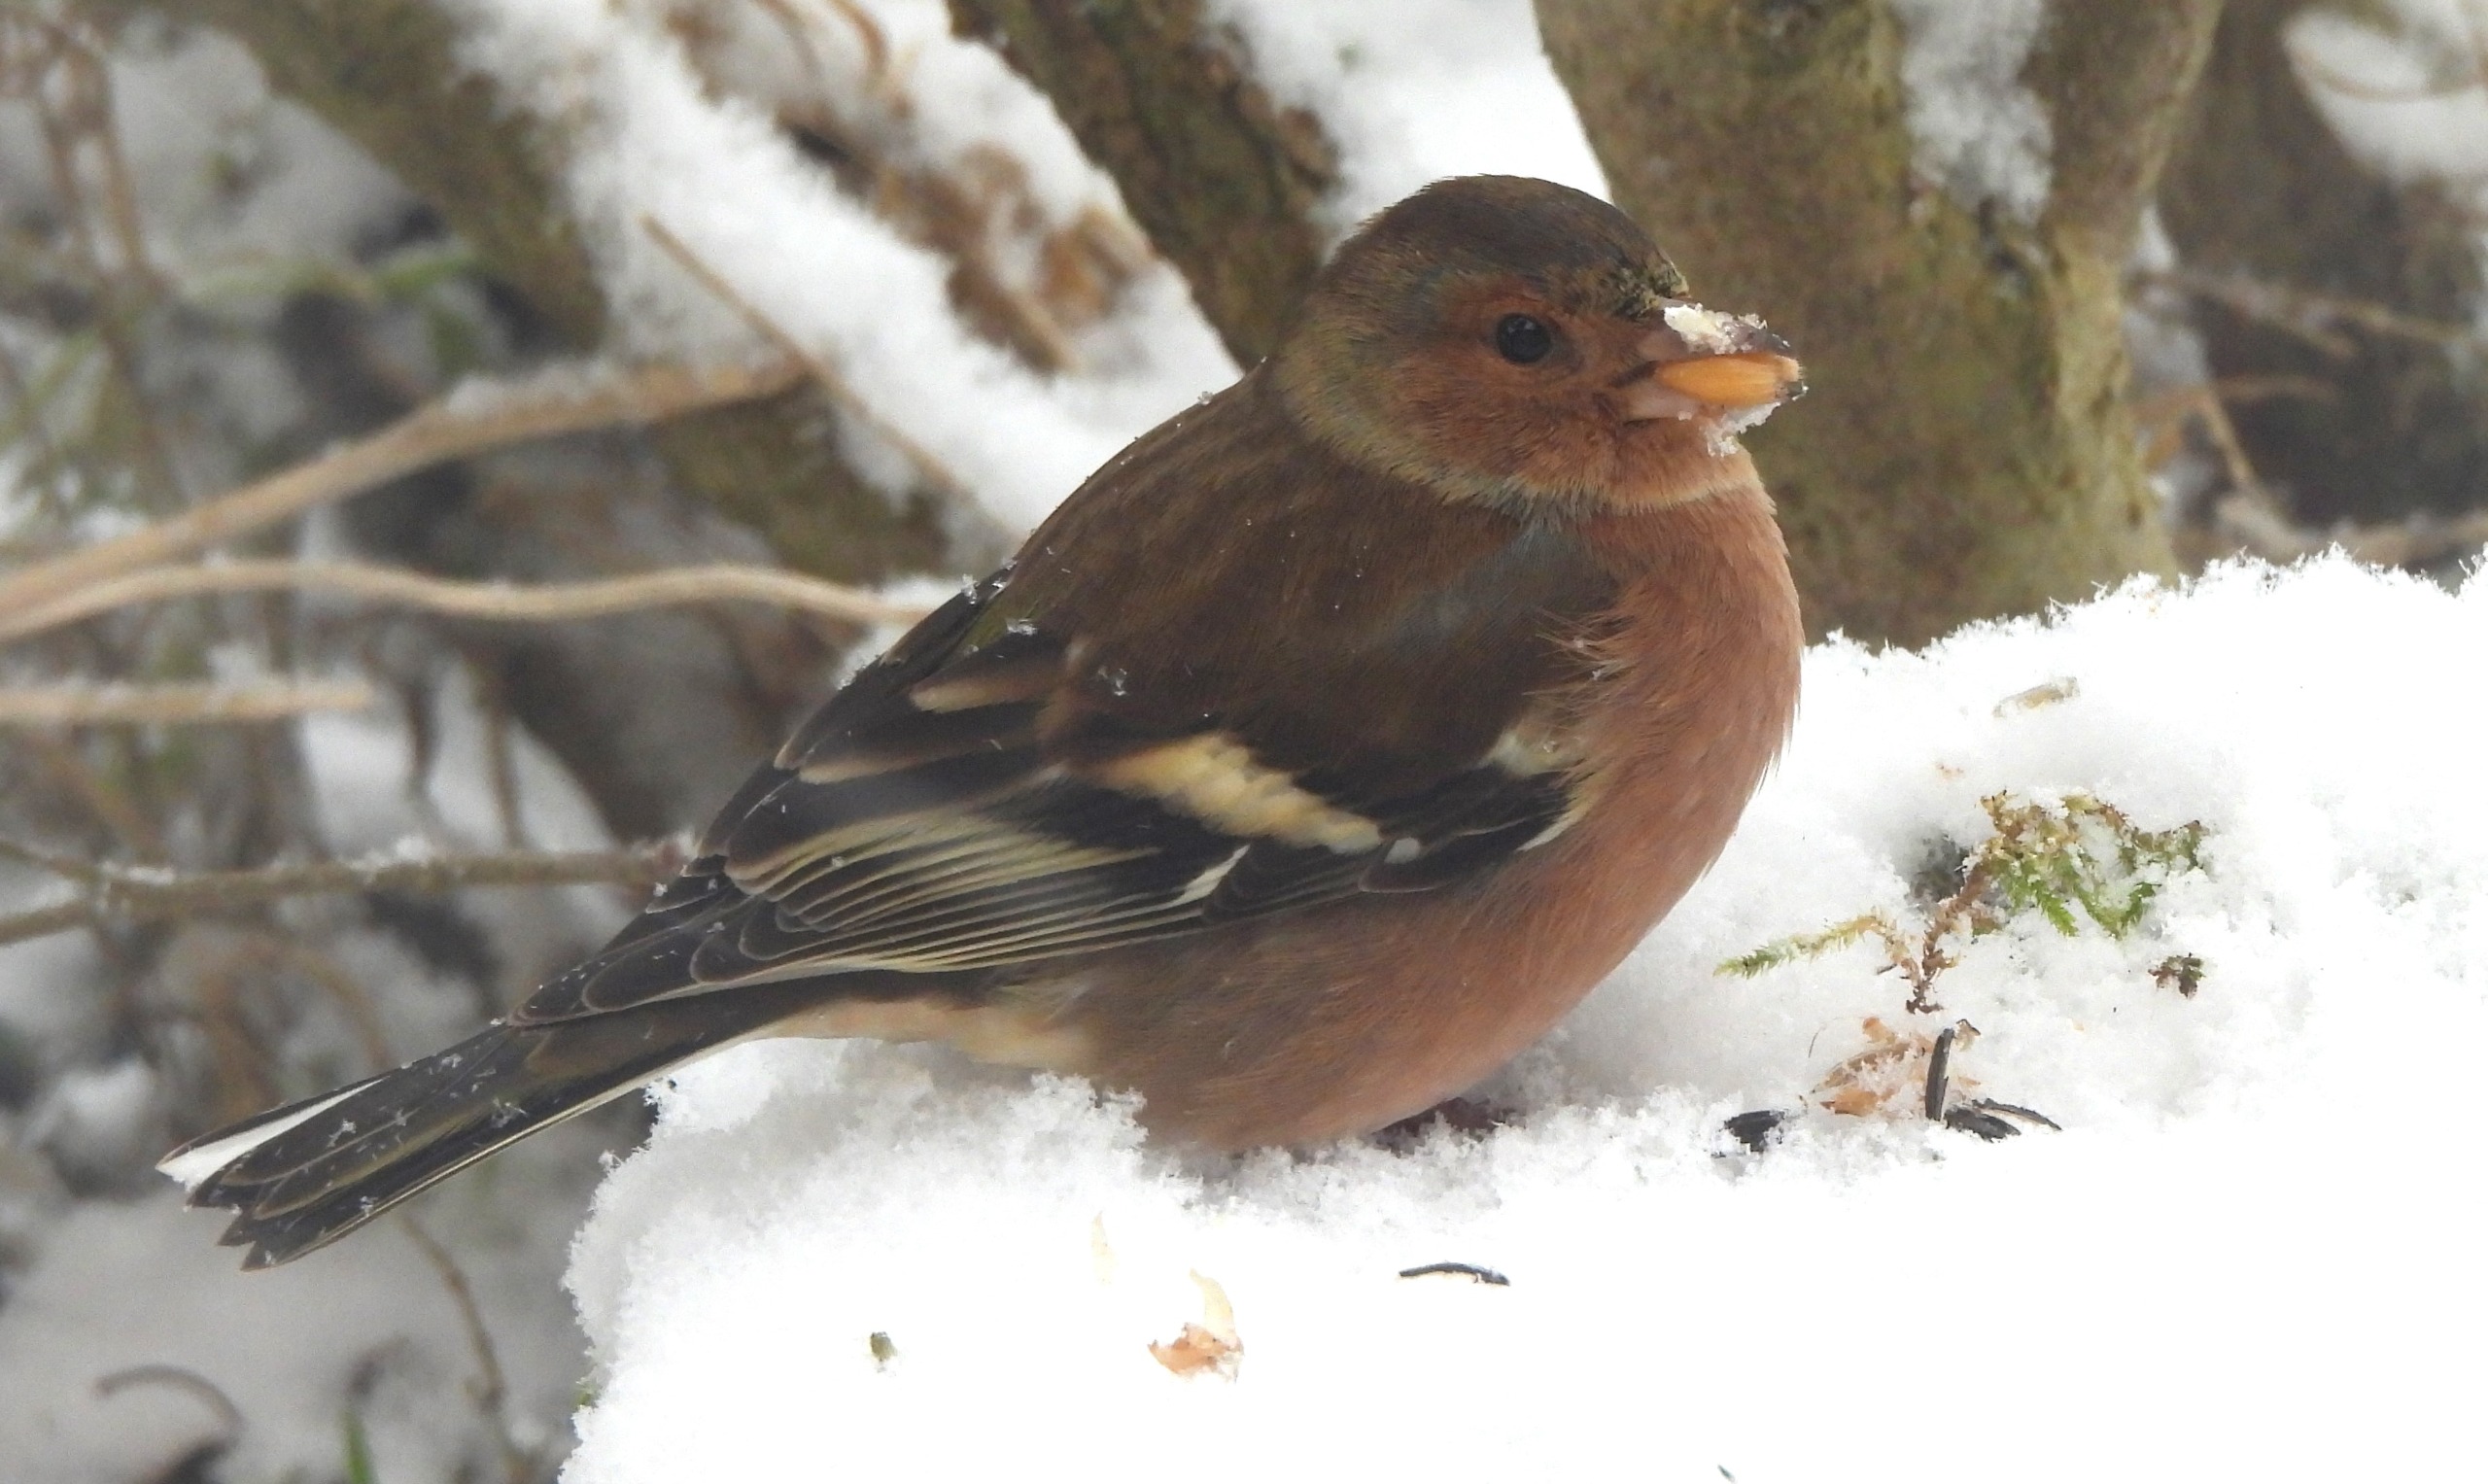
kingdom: Animalia
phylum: Chordata
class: Aves
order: Passeriformes
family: Fringillidae
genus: Fringilla
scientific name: Fringilla coelebs
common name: Bogfinke
